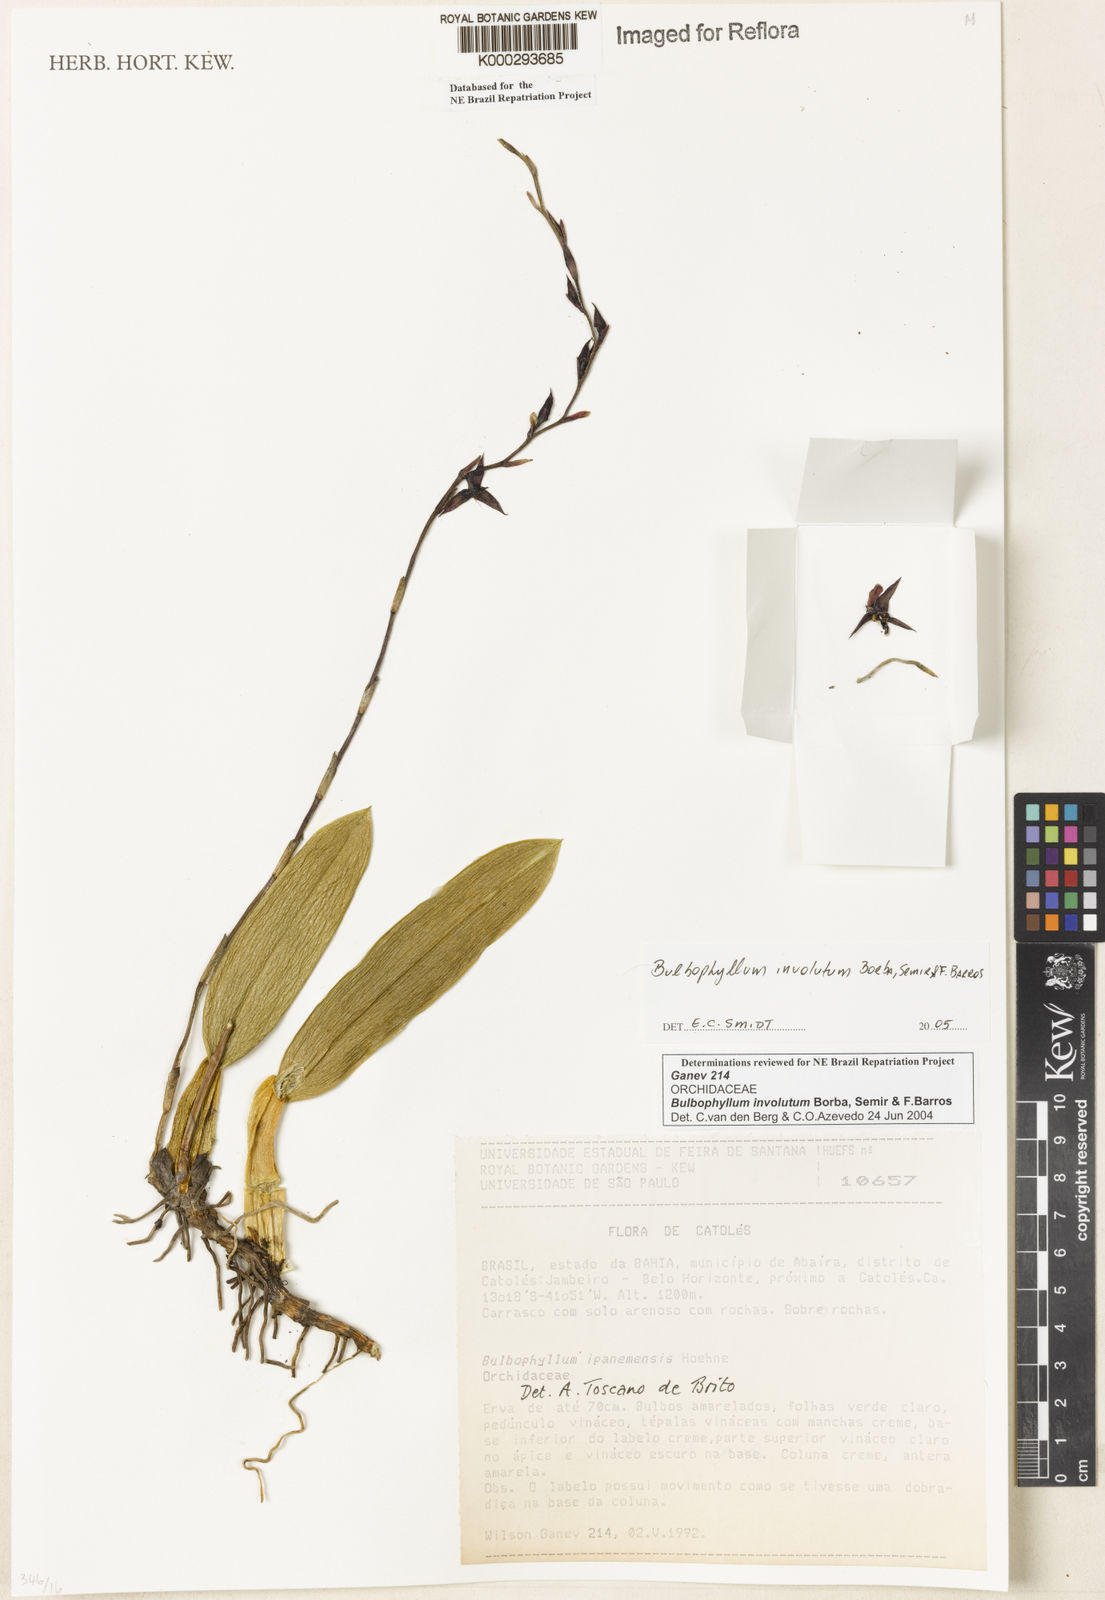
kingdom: Plantae
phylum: Tracheophyta
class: Liliopsida
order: Asparagales
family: Orchidaceae
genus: Bulbophyllum
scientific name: Bulbophyllum involutum
